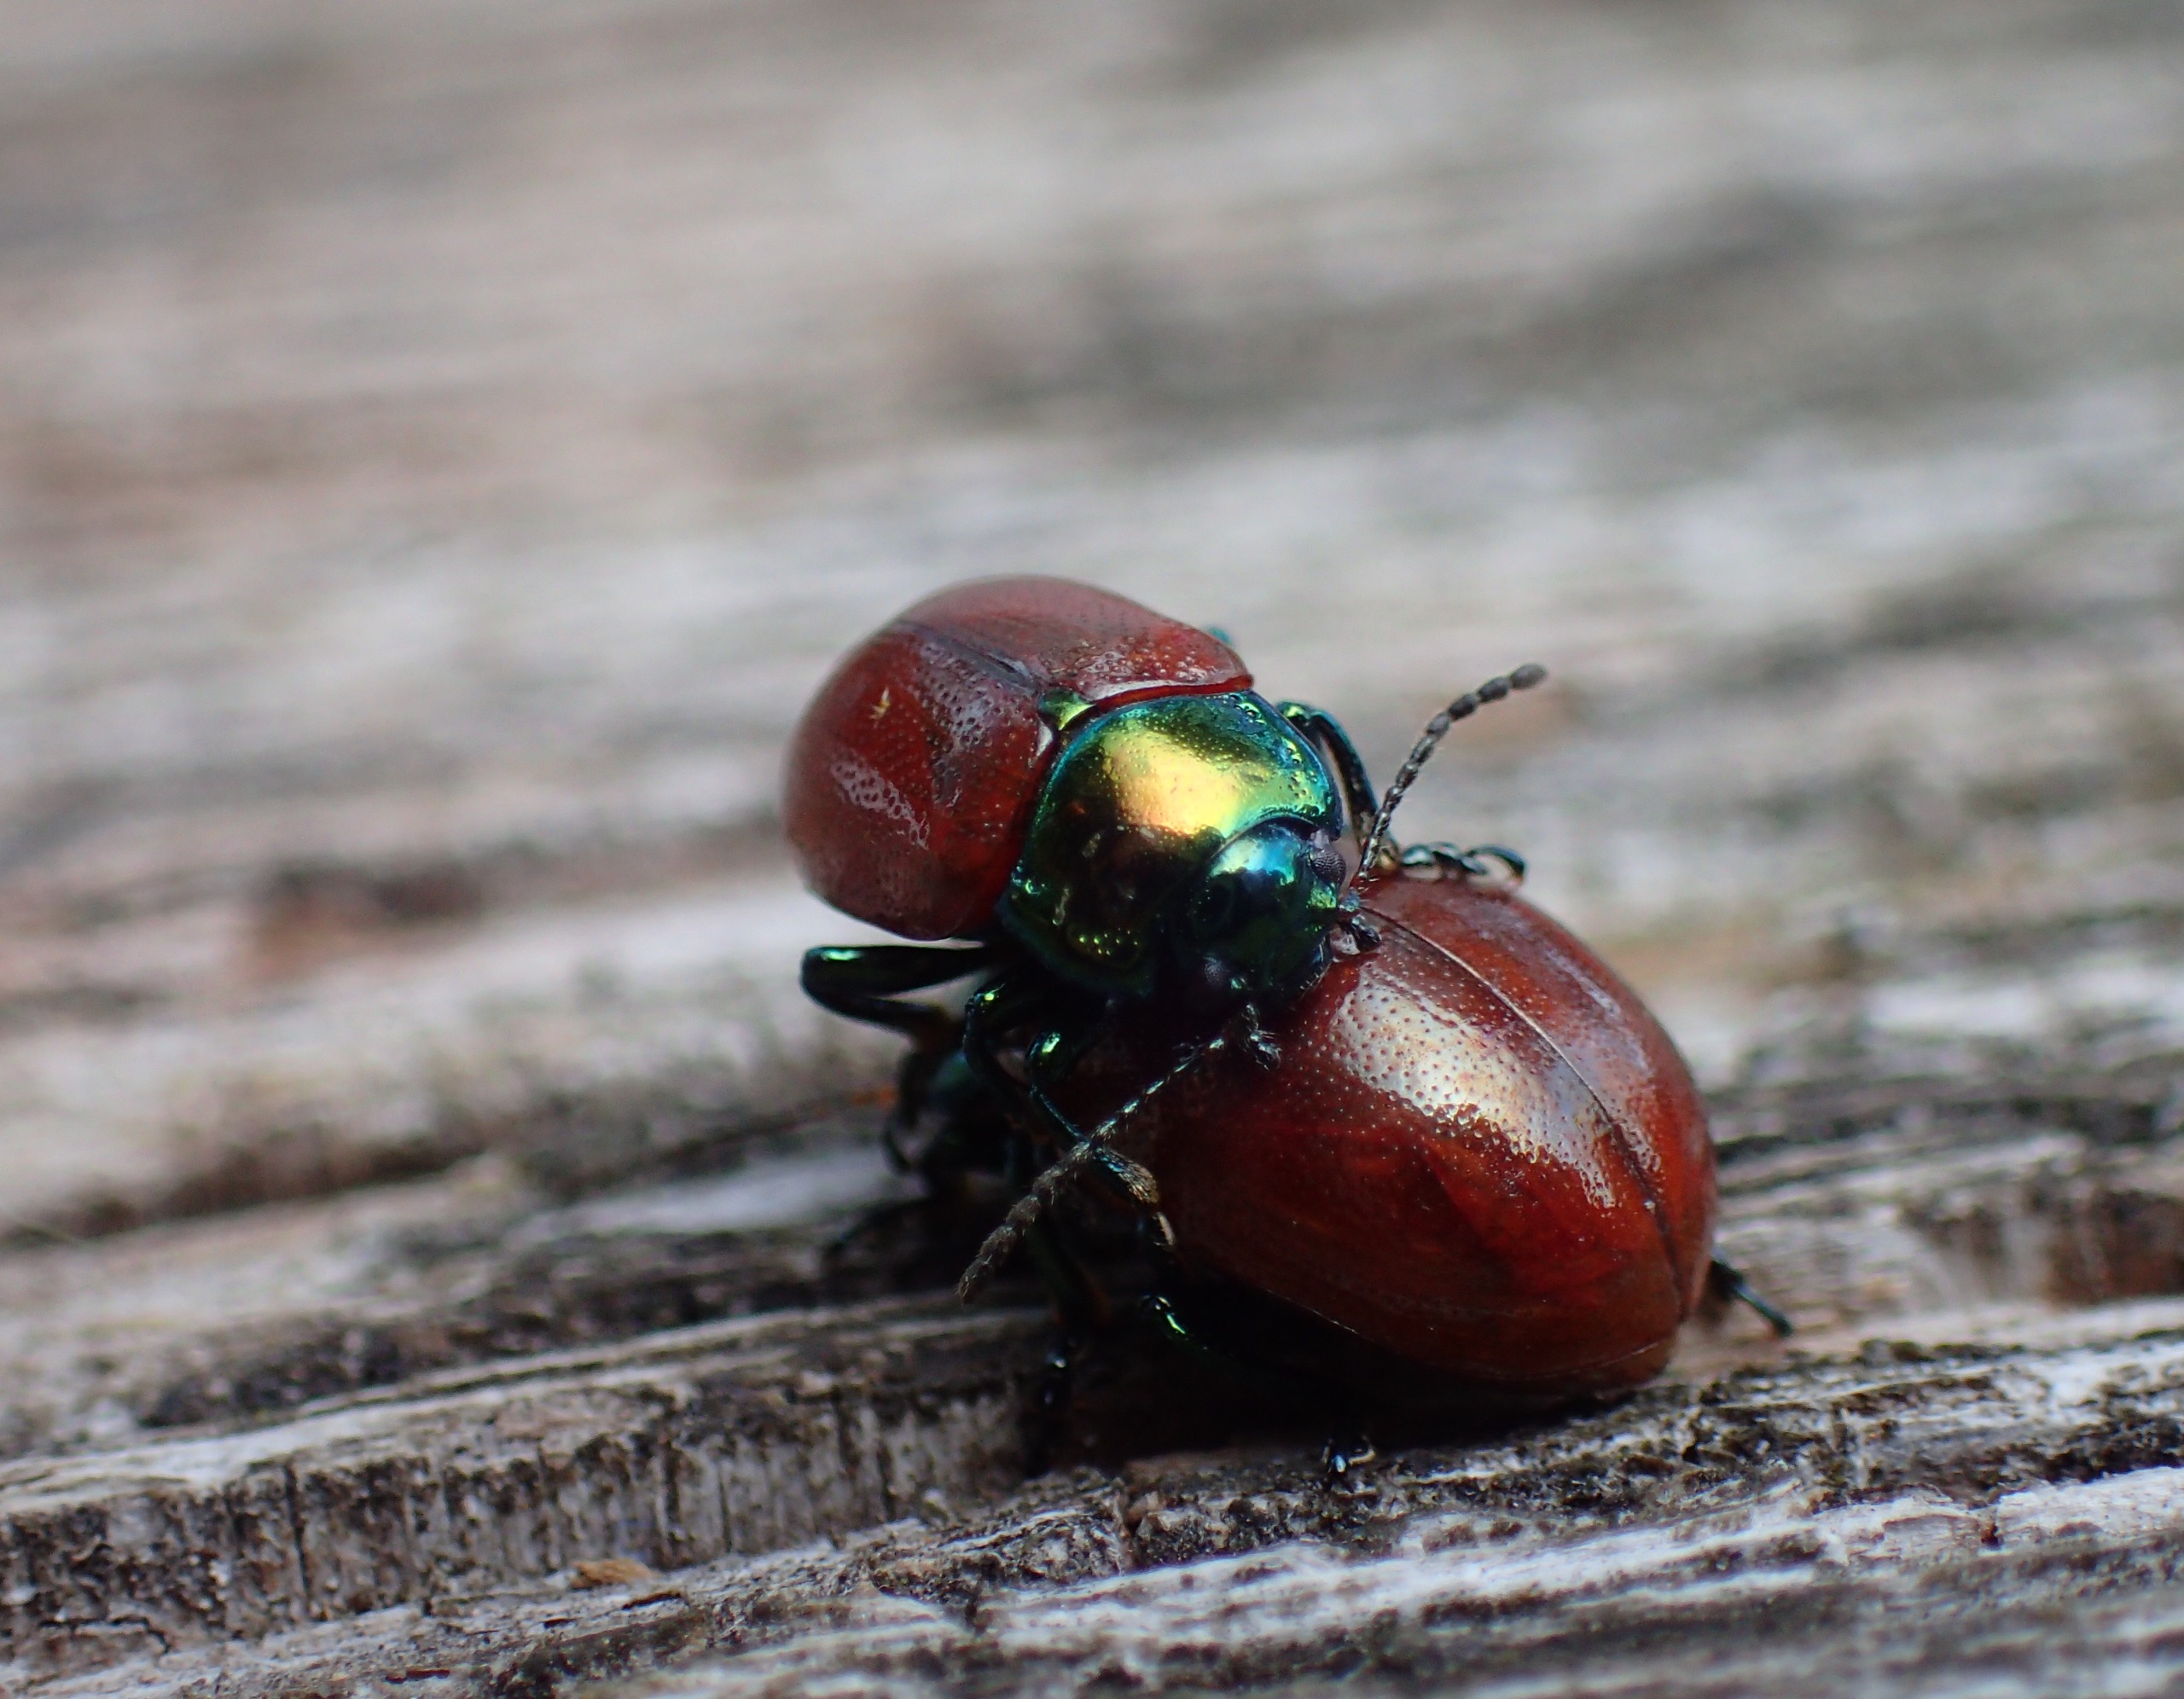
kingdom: Animalia
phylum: Arthropoda
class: Insecta
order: Coleoptera
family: Chrysomelidae
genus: Chrysomela
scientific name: Chrysomela polita
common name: Forskelligfarvet guldbille
